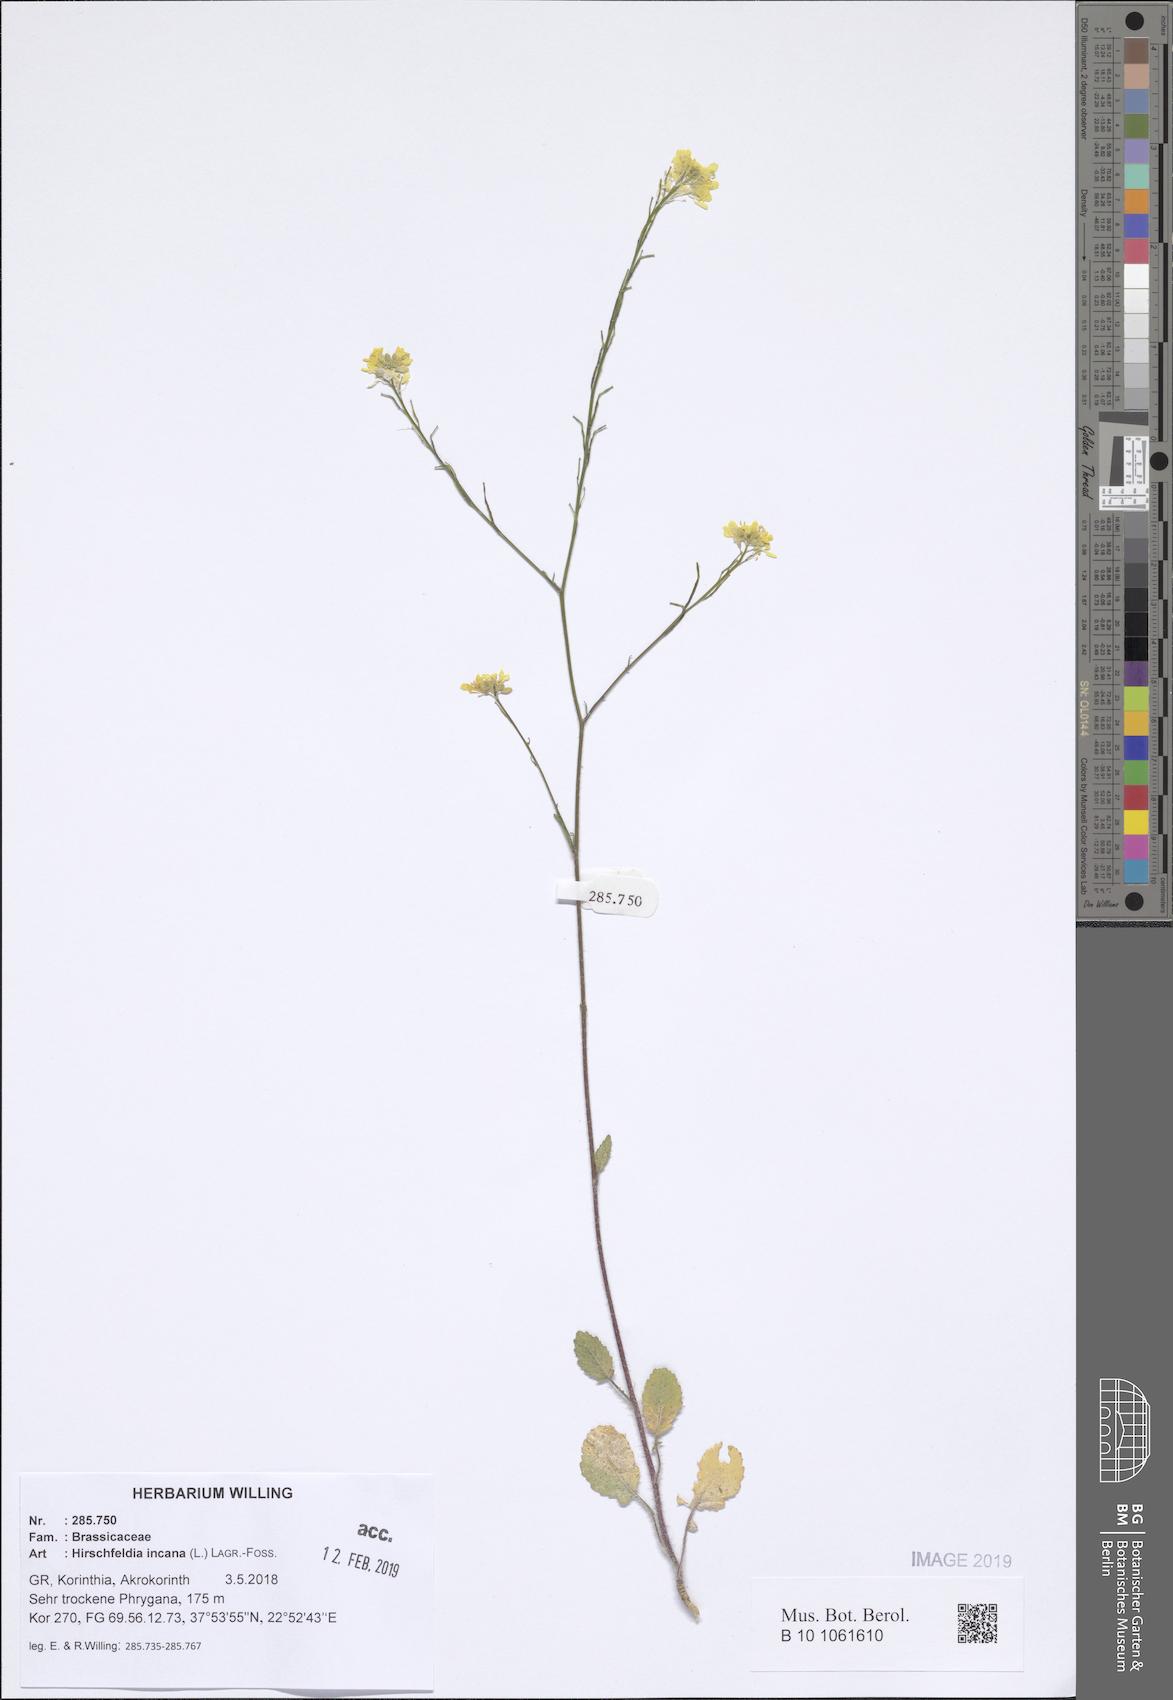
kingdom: Plantae
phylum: Tracheophyta
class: Magnoliopsida
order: Brassicales
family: Brassicaceae
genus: Hirschfeldia
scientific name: Hirschfeldia incana
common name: Hoary mustard
